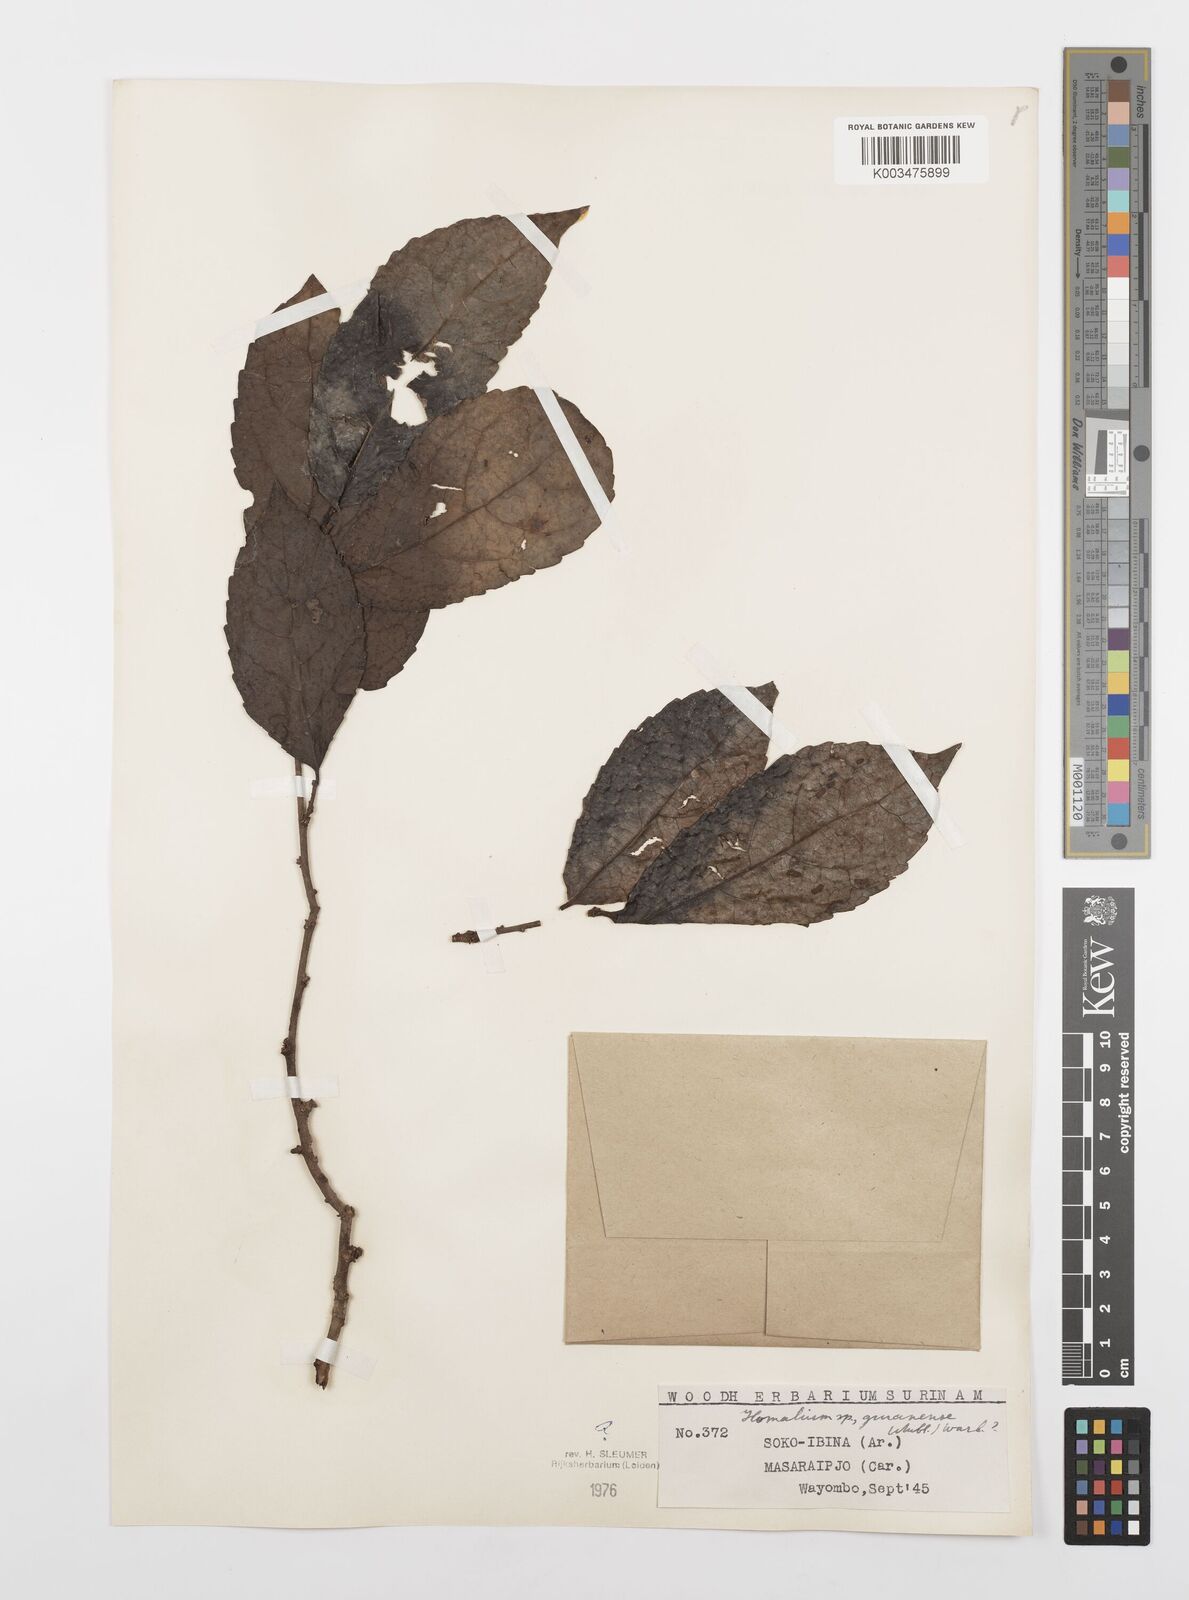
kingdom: Plantae
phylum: Tracheophyta
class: Magnoliopsida
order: Malpighiales
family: Salicaceae
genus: Homalium
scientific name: Homalium guianense
